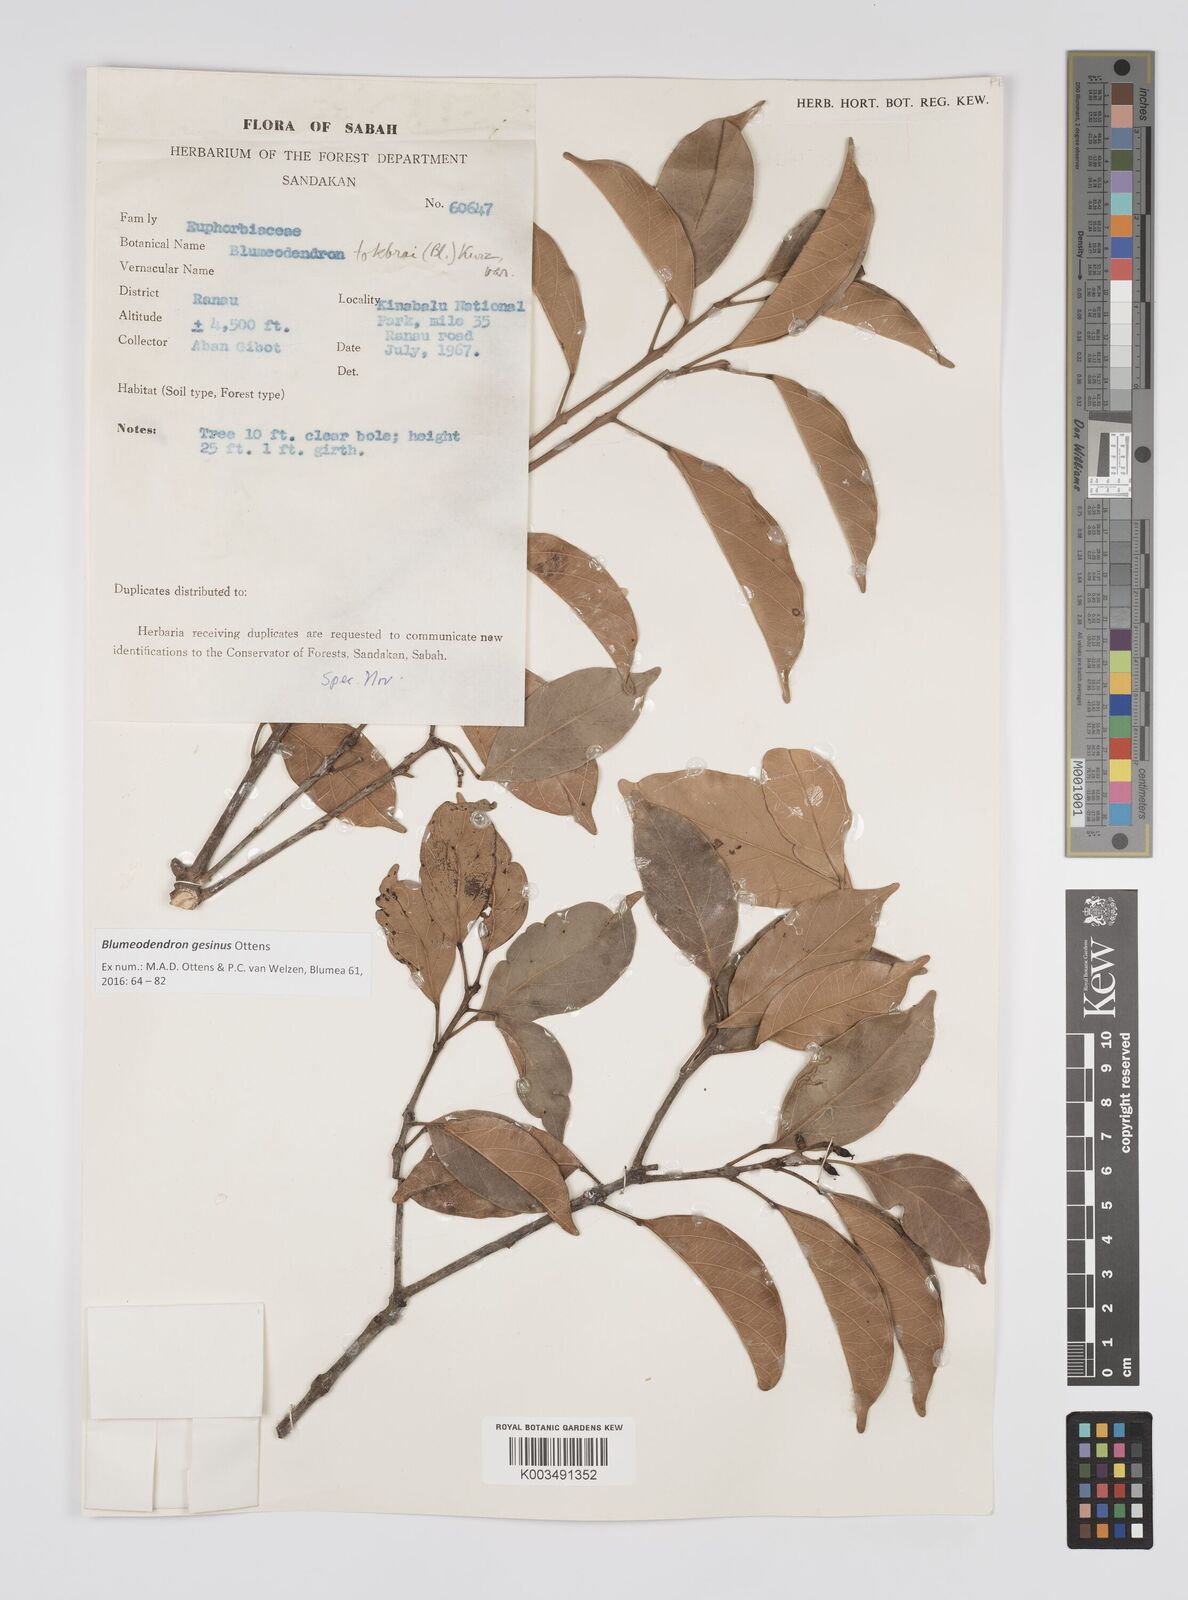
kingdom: Plantae
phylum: Tracheophyta
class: Magnoliopsida
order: Malpighiales
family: Euphorbiaceae
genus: Blumeodendron
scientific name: Blumeodendron gesinus
